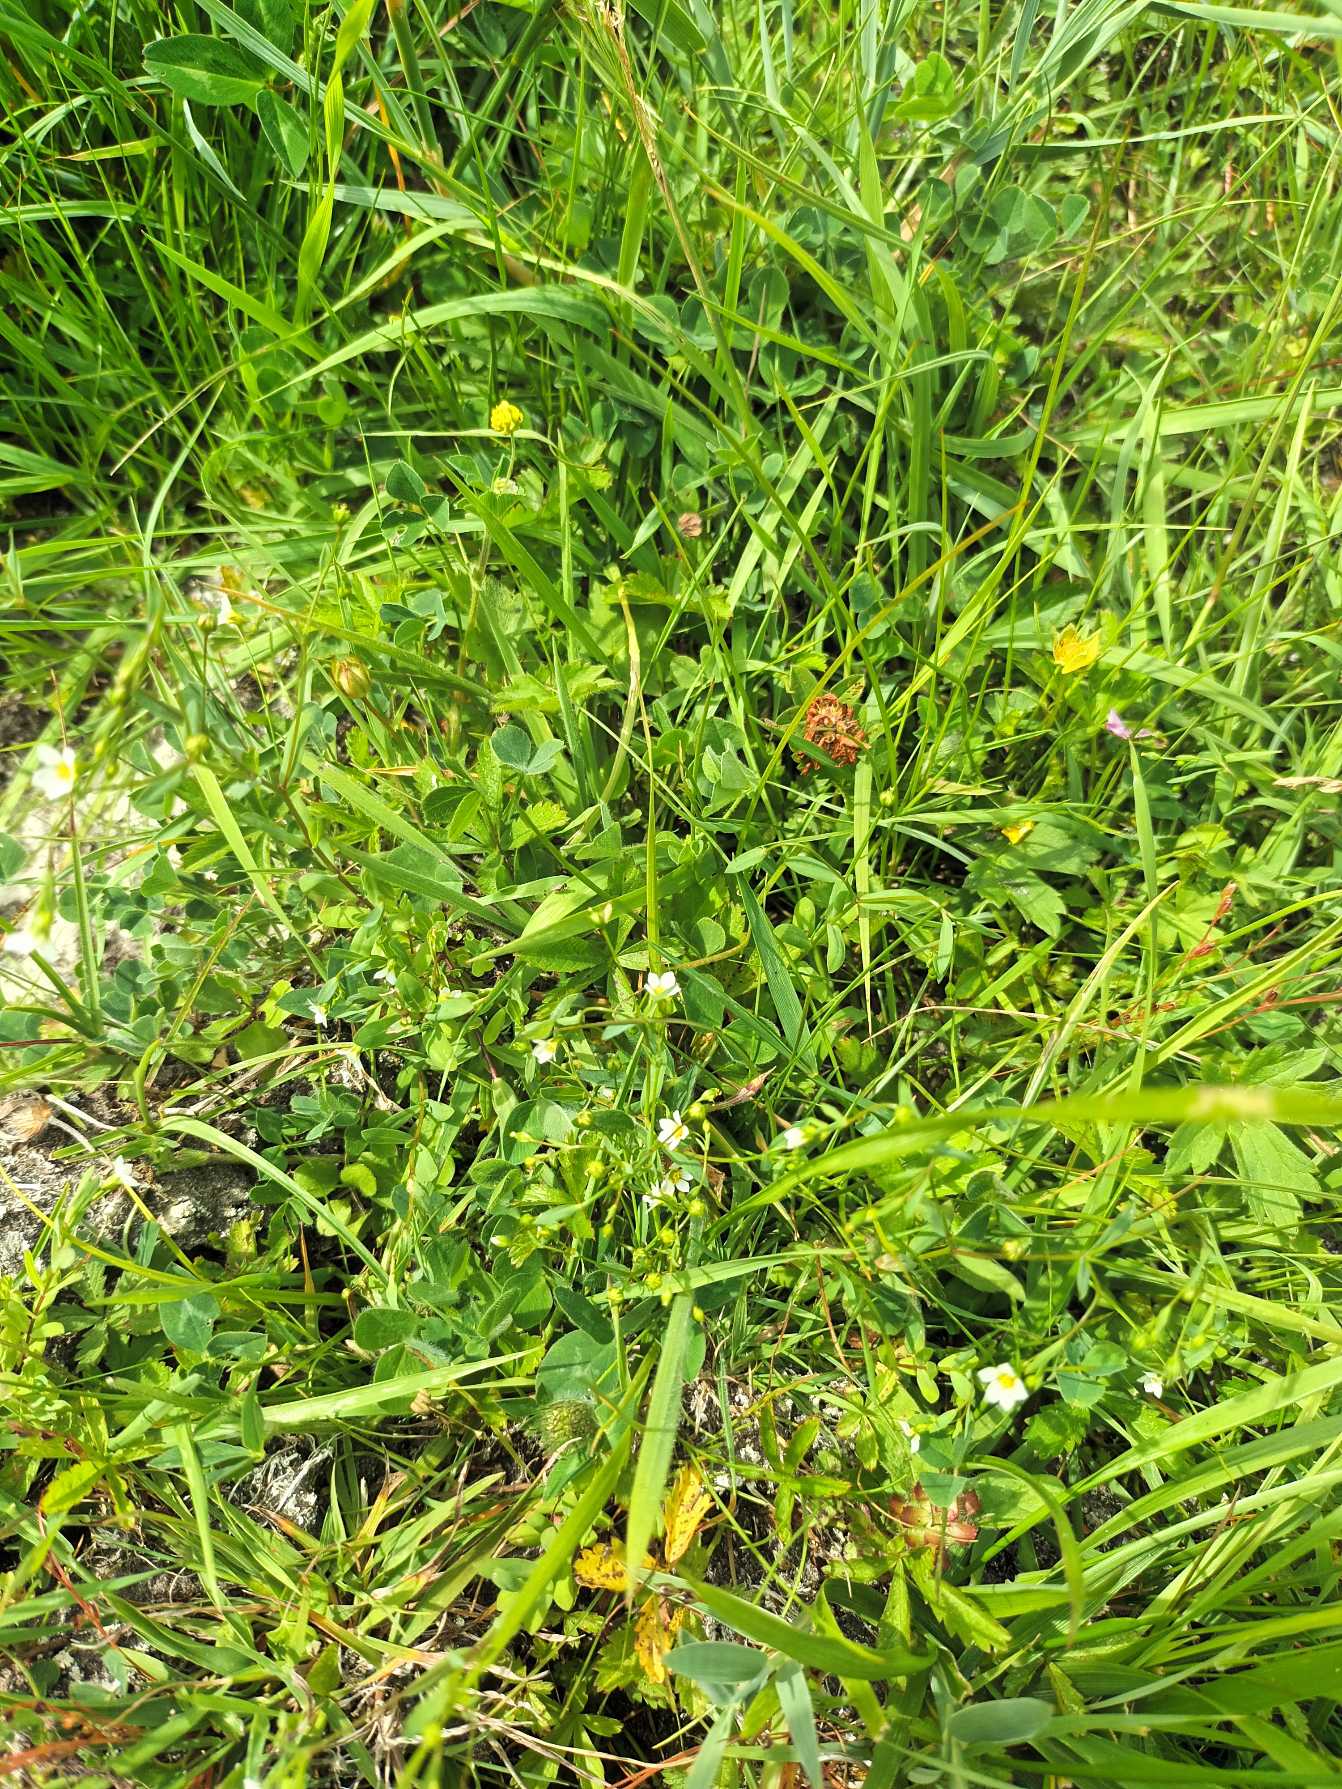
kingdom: Plantae
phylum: Tracheophyta
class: Magnoliopsida
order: Malpighiales
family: Linaceae
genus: Linum
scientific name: Linum catharticum
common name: Vild hør
